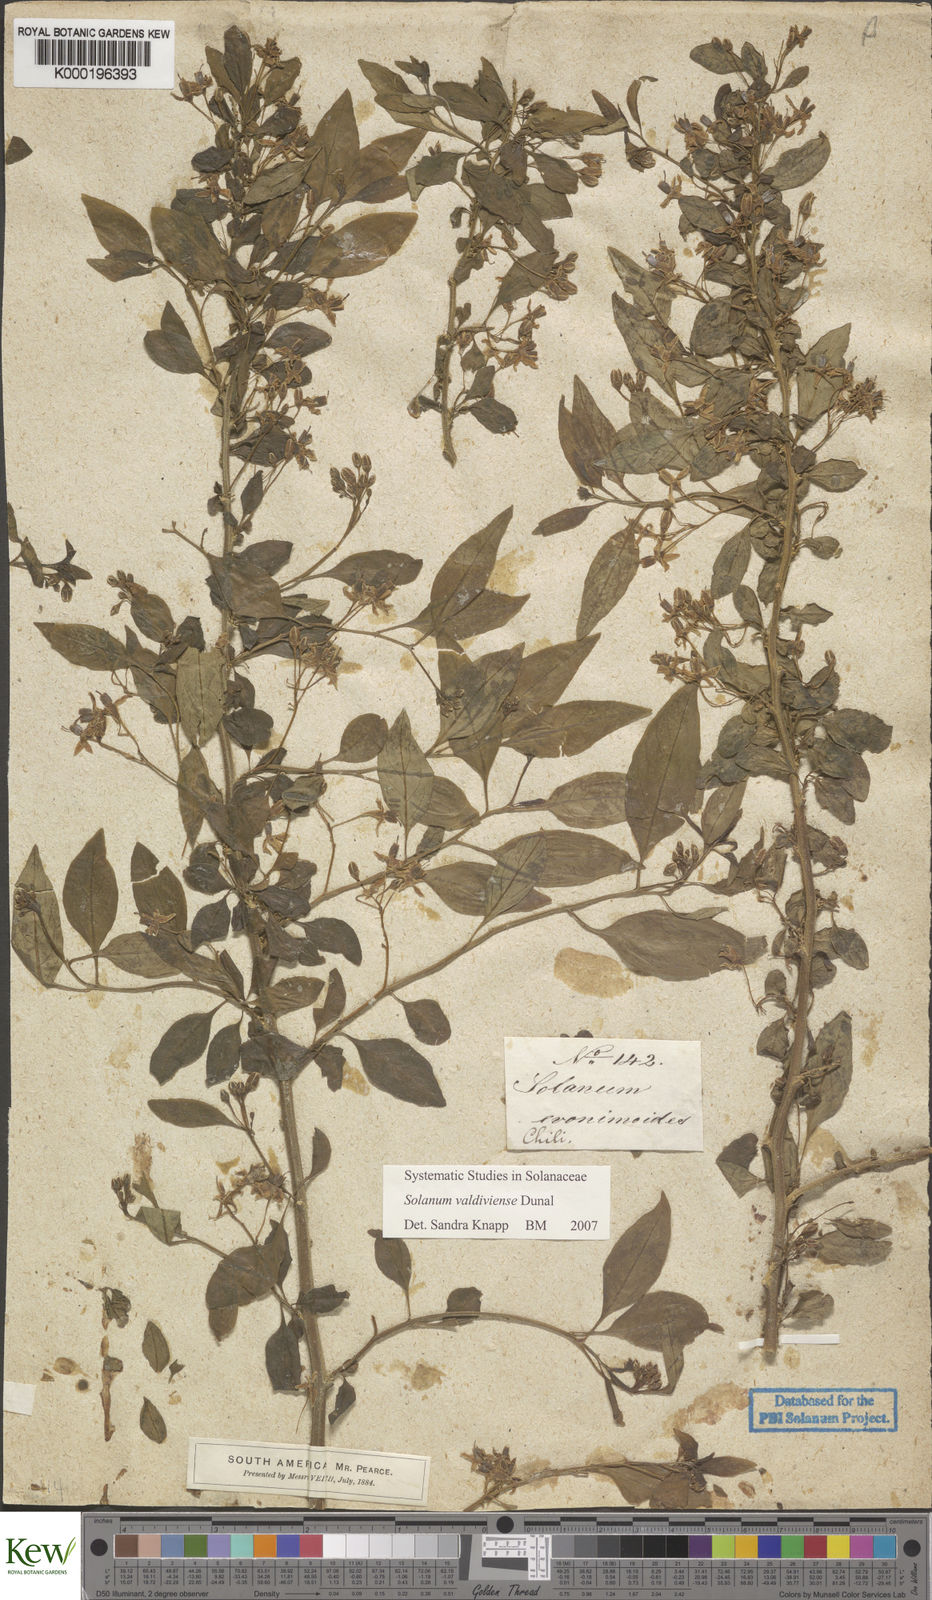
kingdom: Plantae
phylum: Tracheophyta
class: Magnoliopsida
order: Solanales
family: Solanaceae
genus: Solanum
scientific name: Solanum valdiviense
